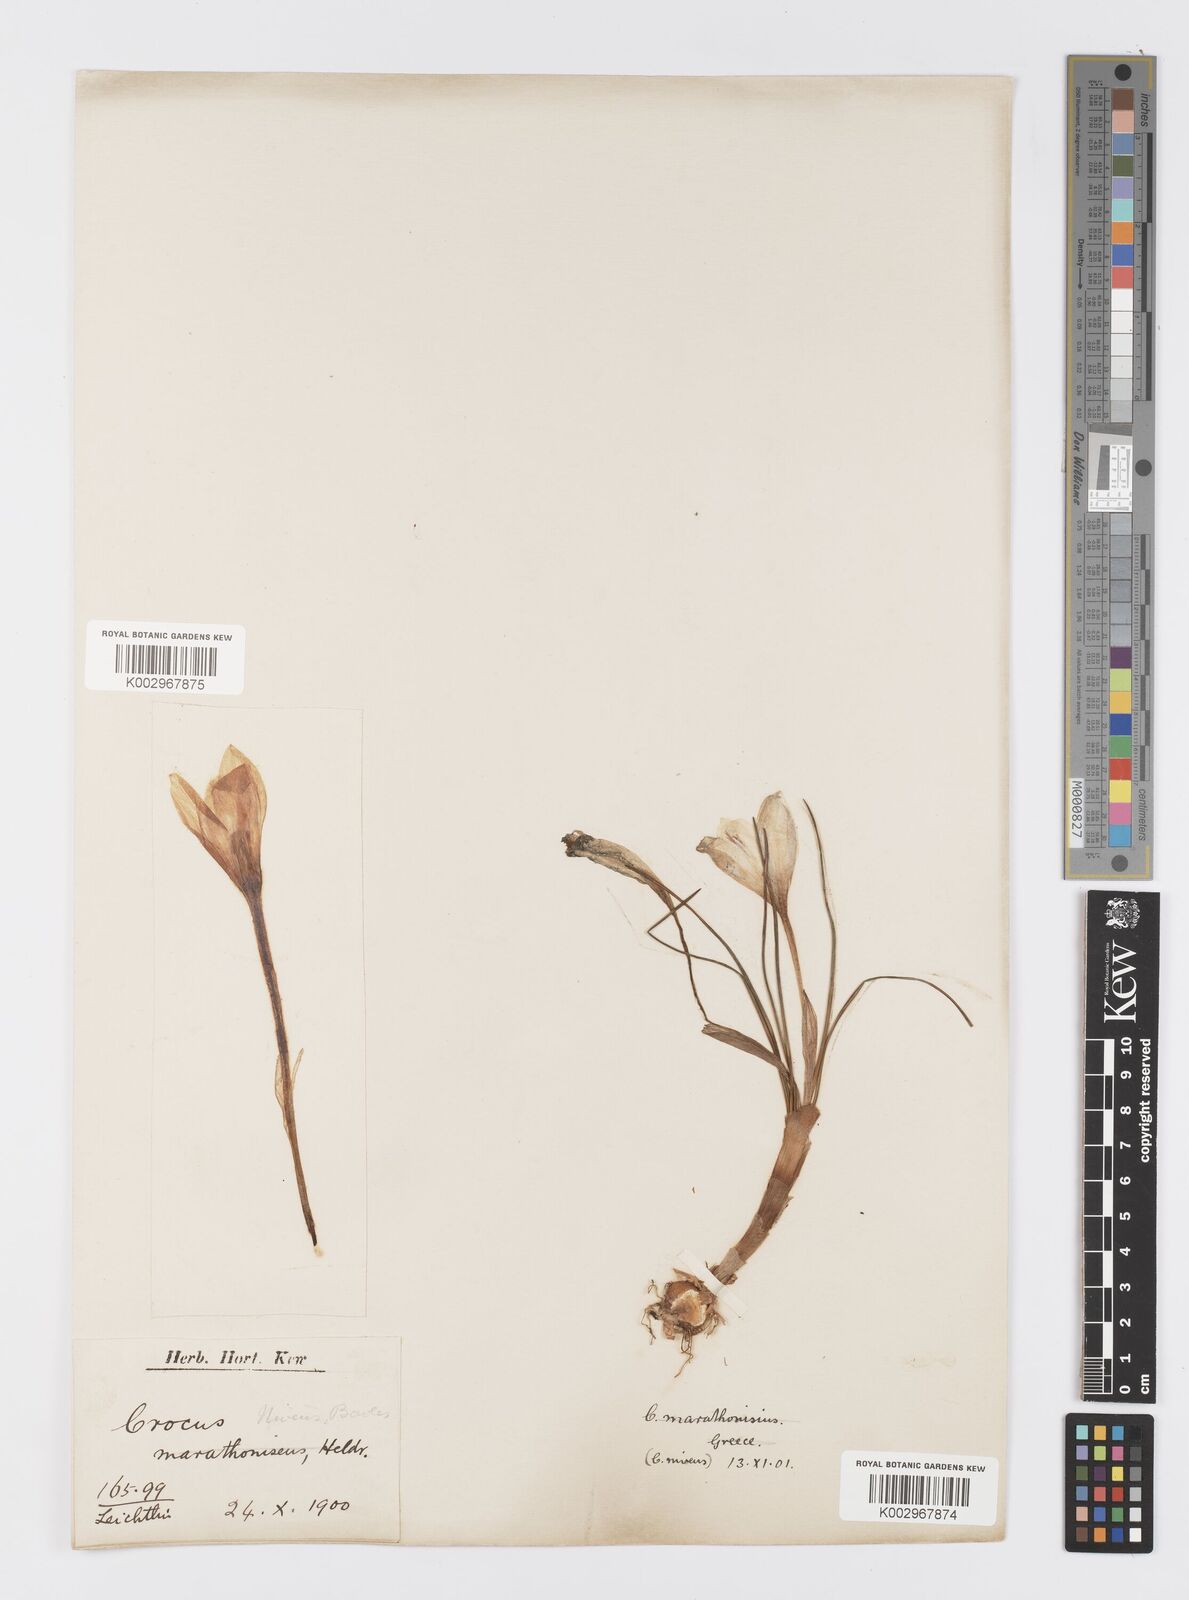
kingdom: Plantae
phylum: Tracheophyta
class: Liliopsida
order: Asparagales
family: Iridaceae
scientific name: Iridaceae
